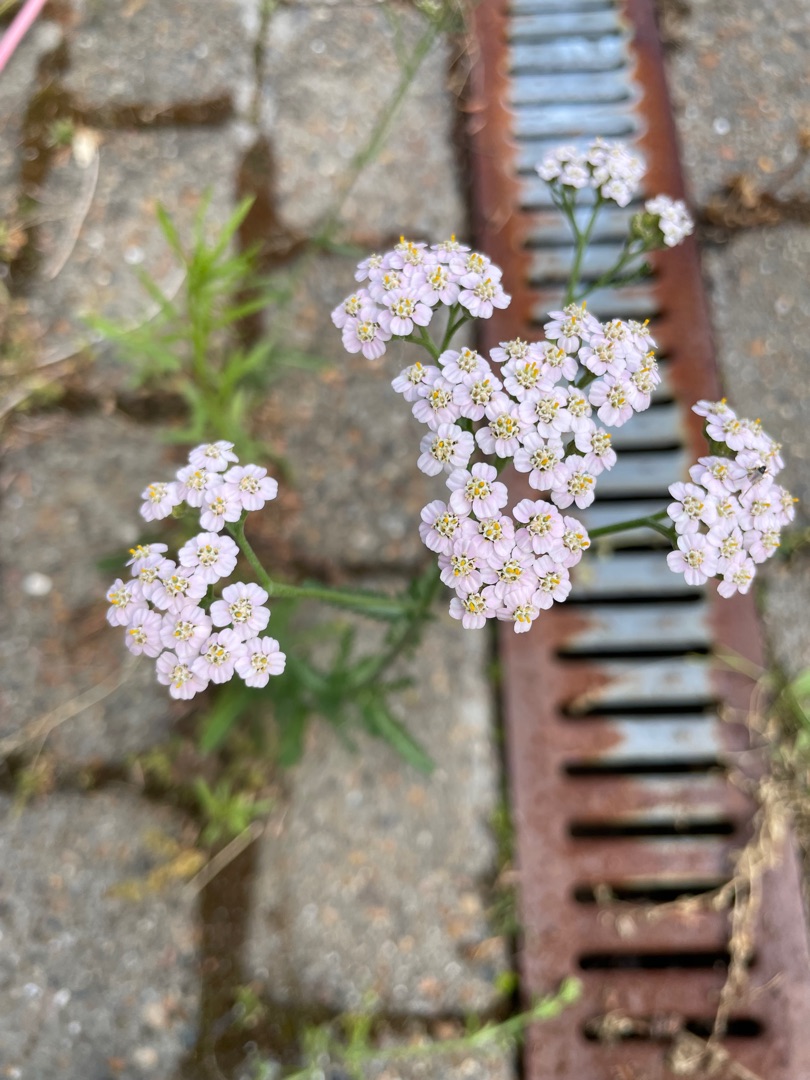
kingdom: Plantae
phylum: Tracheophyta
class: Magnoliopsida
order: Asterales
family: Asteraceae
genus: Achillea
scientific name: Achillea millefolium
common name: Almindelig røllike
